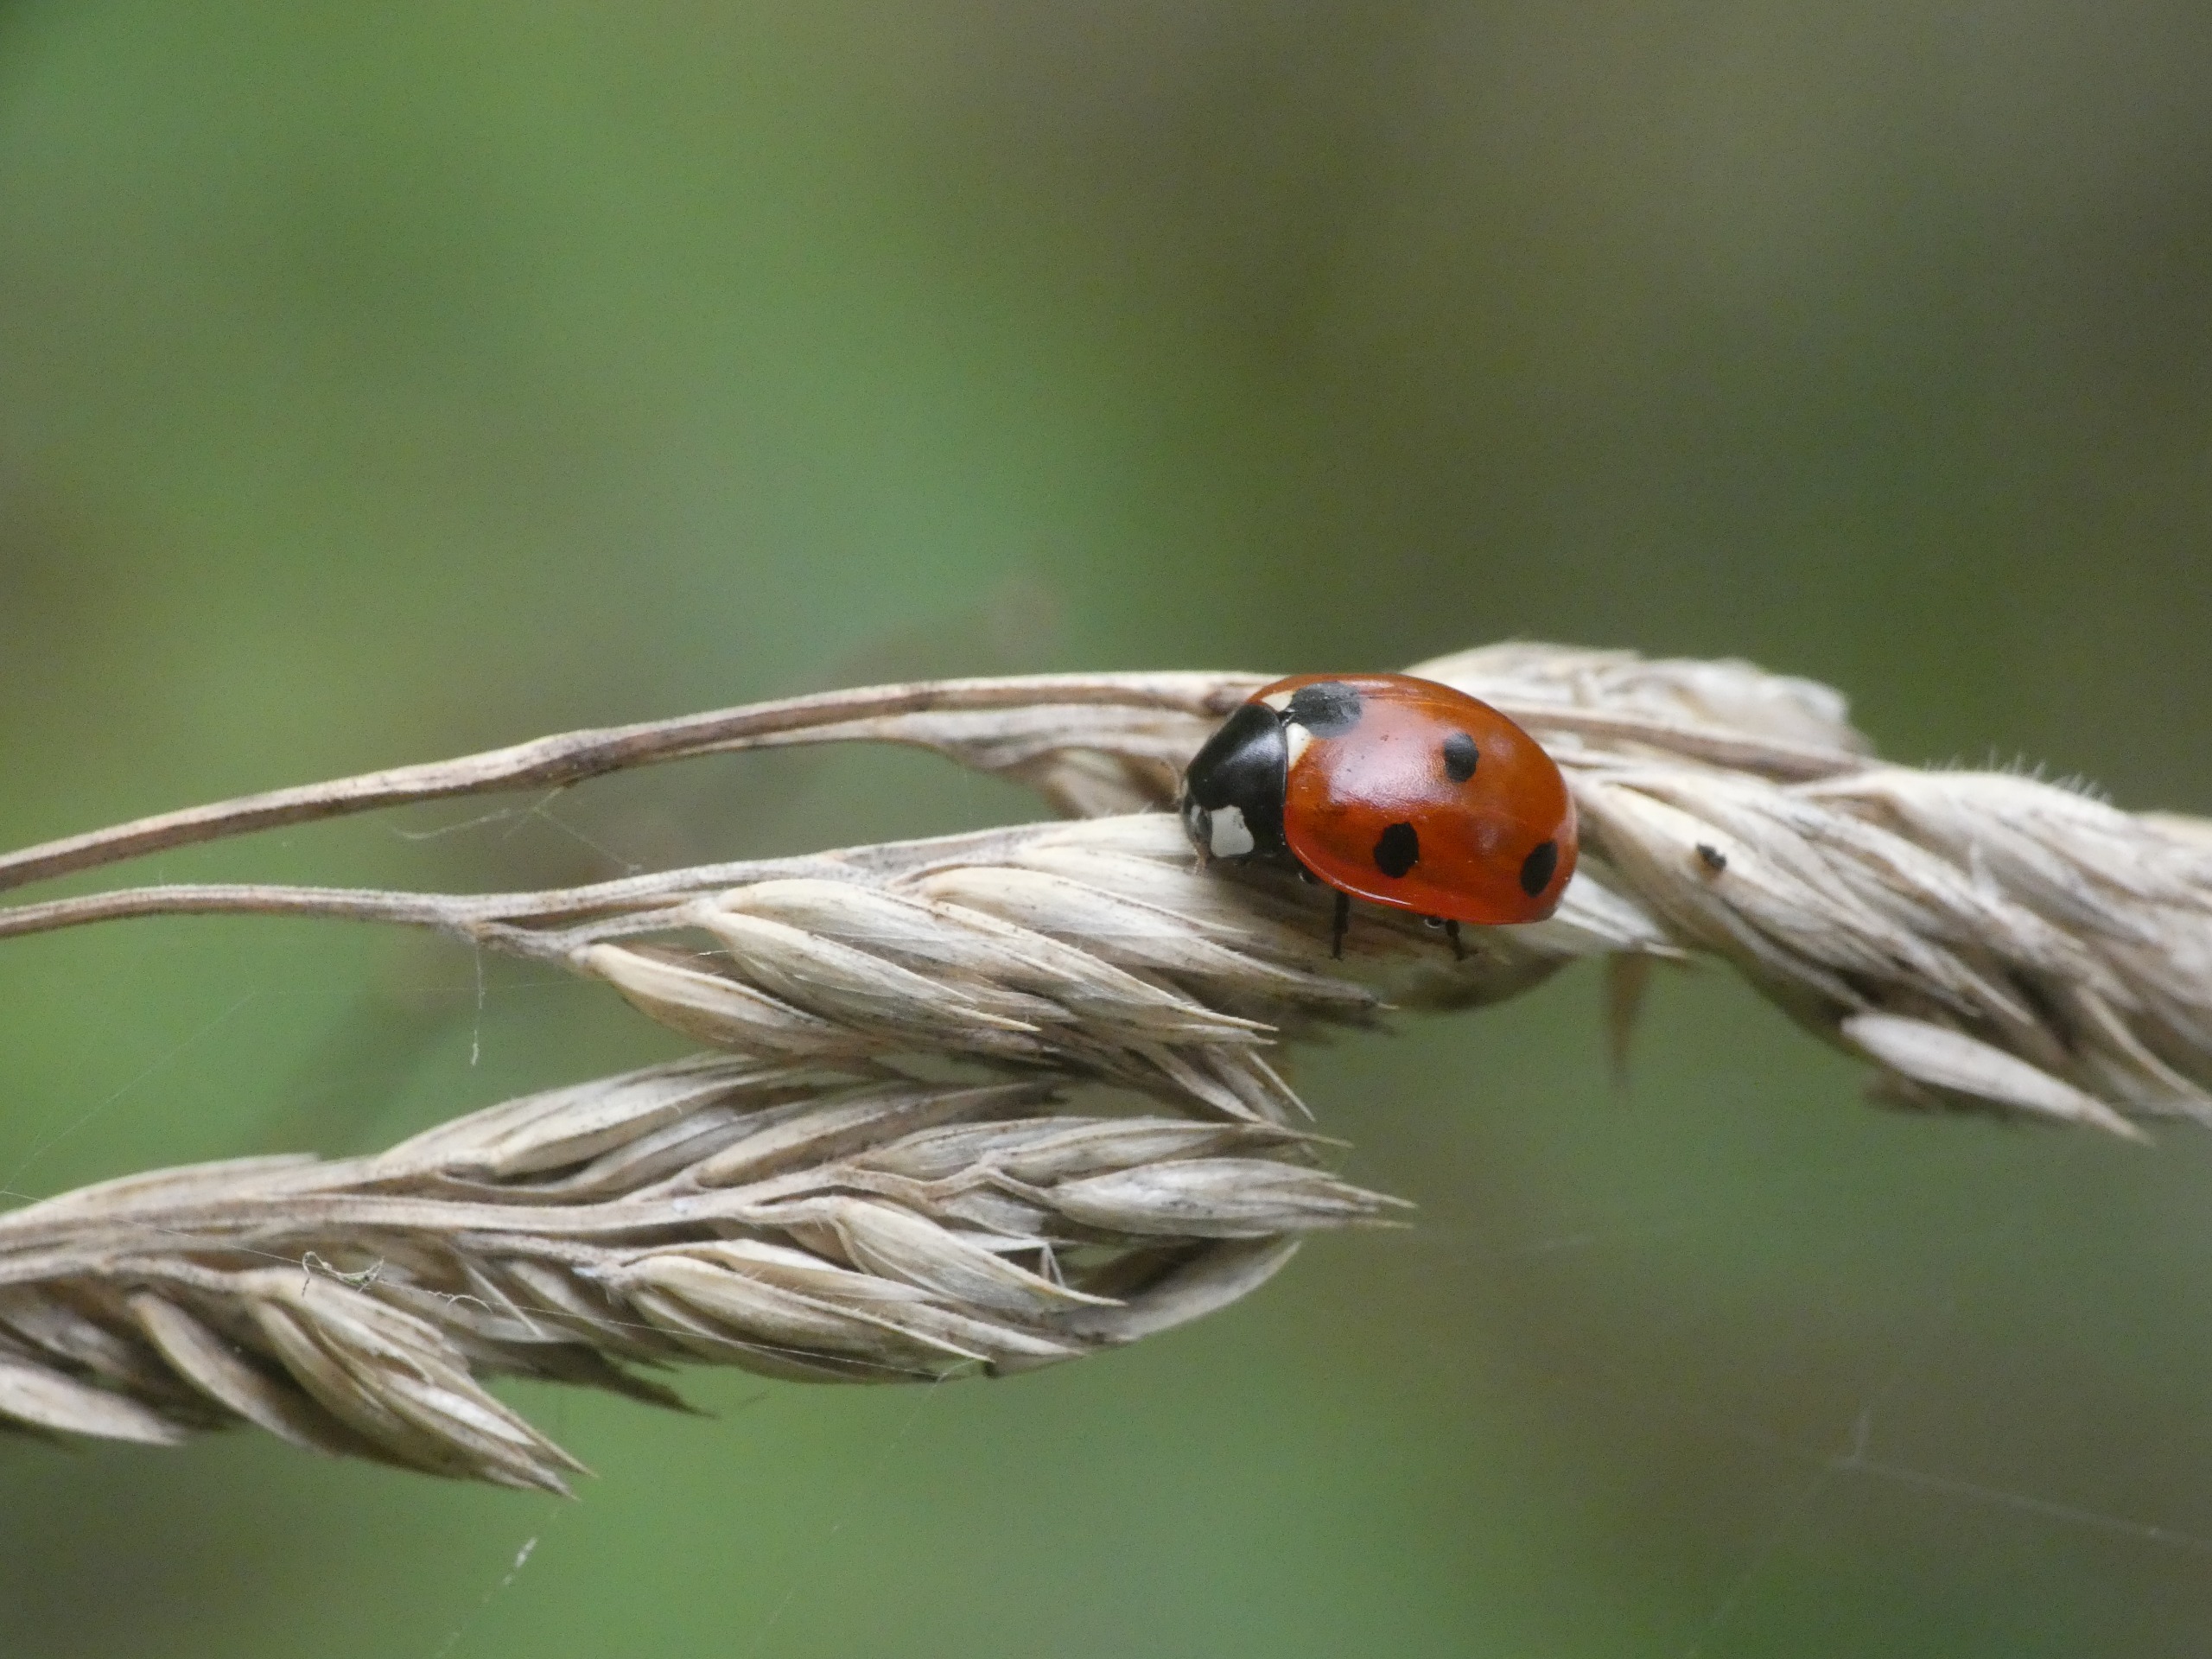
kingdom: Animalia
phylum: Arthropoda
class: Insecta
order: Coleoptera
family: Coccinellidae
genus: Coccinella
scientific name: Coccinella septempunctata
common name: Syvplettet mariehøne
